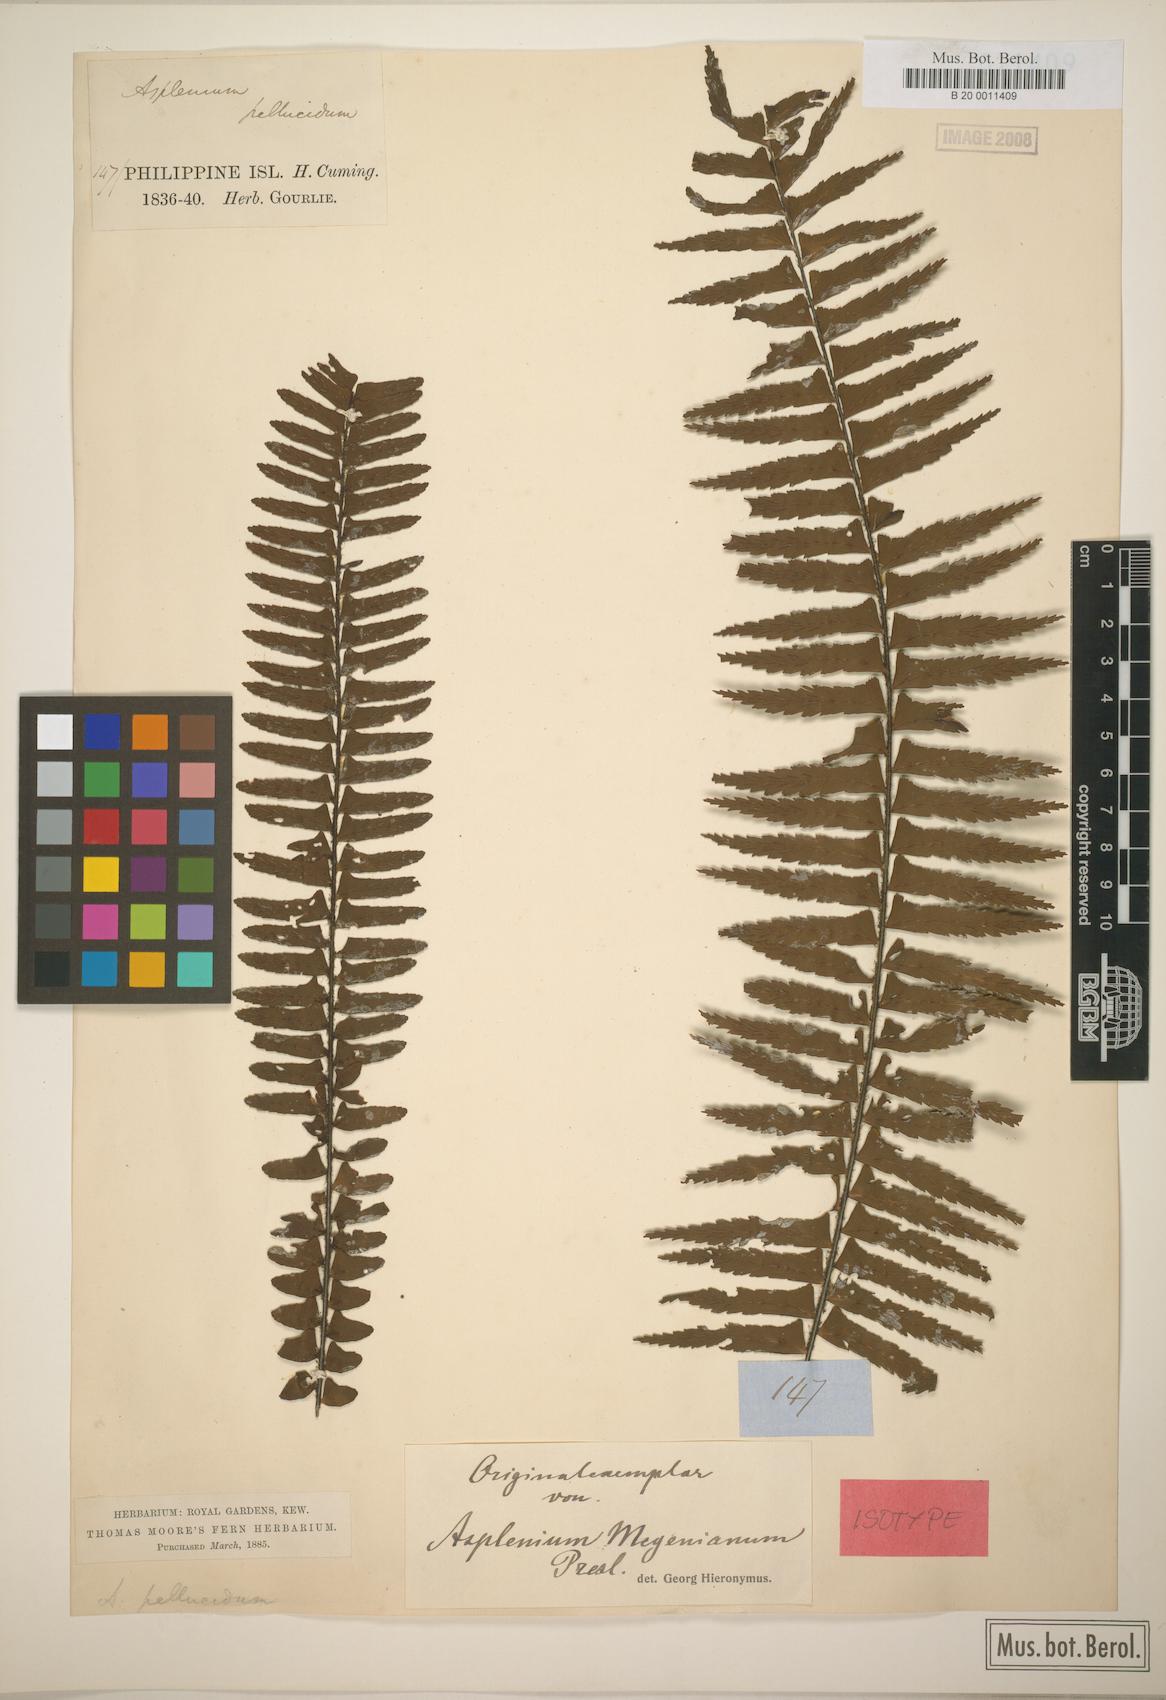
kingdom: Plantae
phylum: Tracheophyta
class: Polypodiopsida
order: Polypodiales
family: Aspleniaceae
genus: Asplenium
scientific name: Asplenium pellucidum
